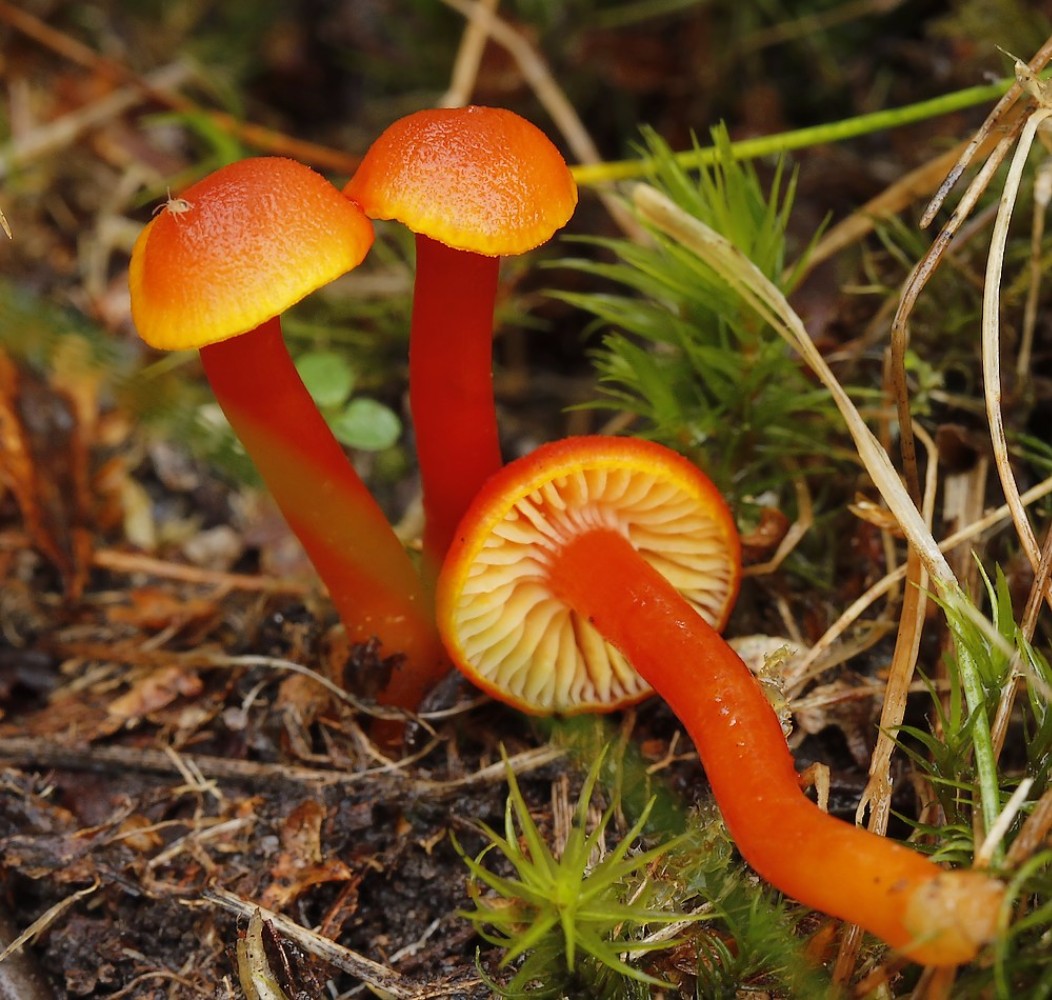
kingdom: Fungi
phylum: Basidiomycota
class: Agaricomycetes
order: Agaricales
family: Hygrophoraceae
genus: Hygrocybe
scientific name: Hygrocybe miniata
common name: mønje-vokshat
